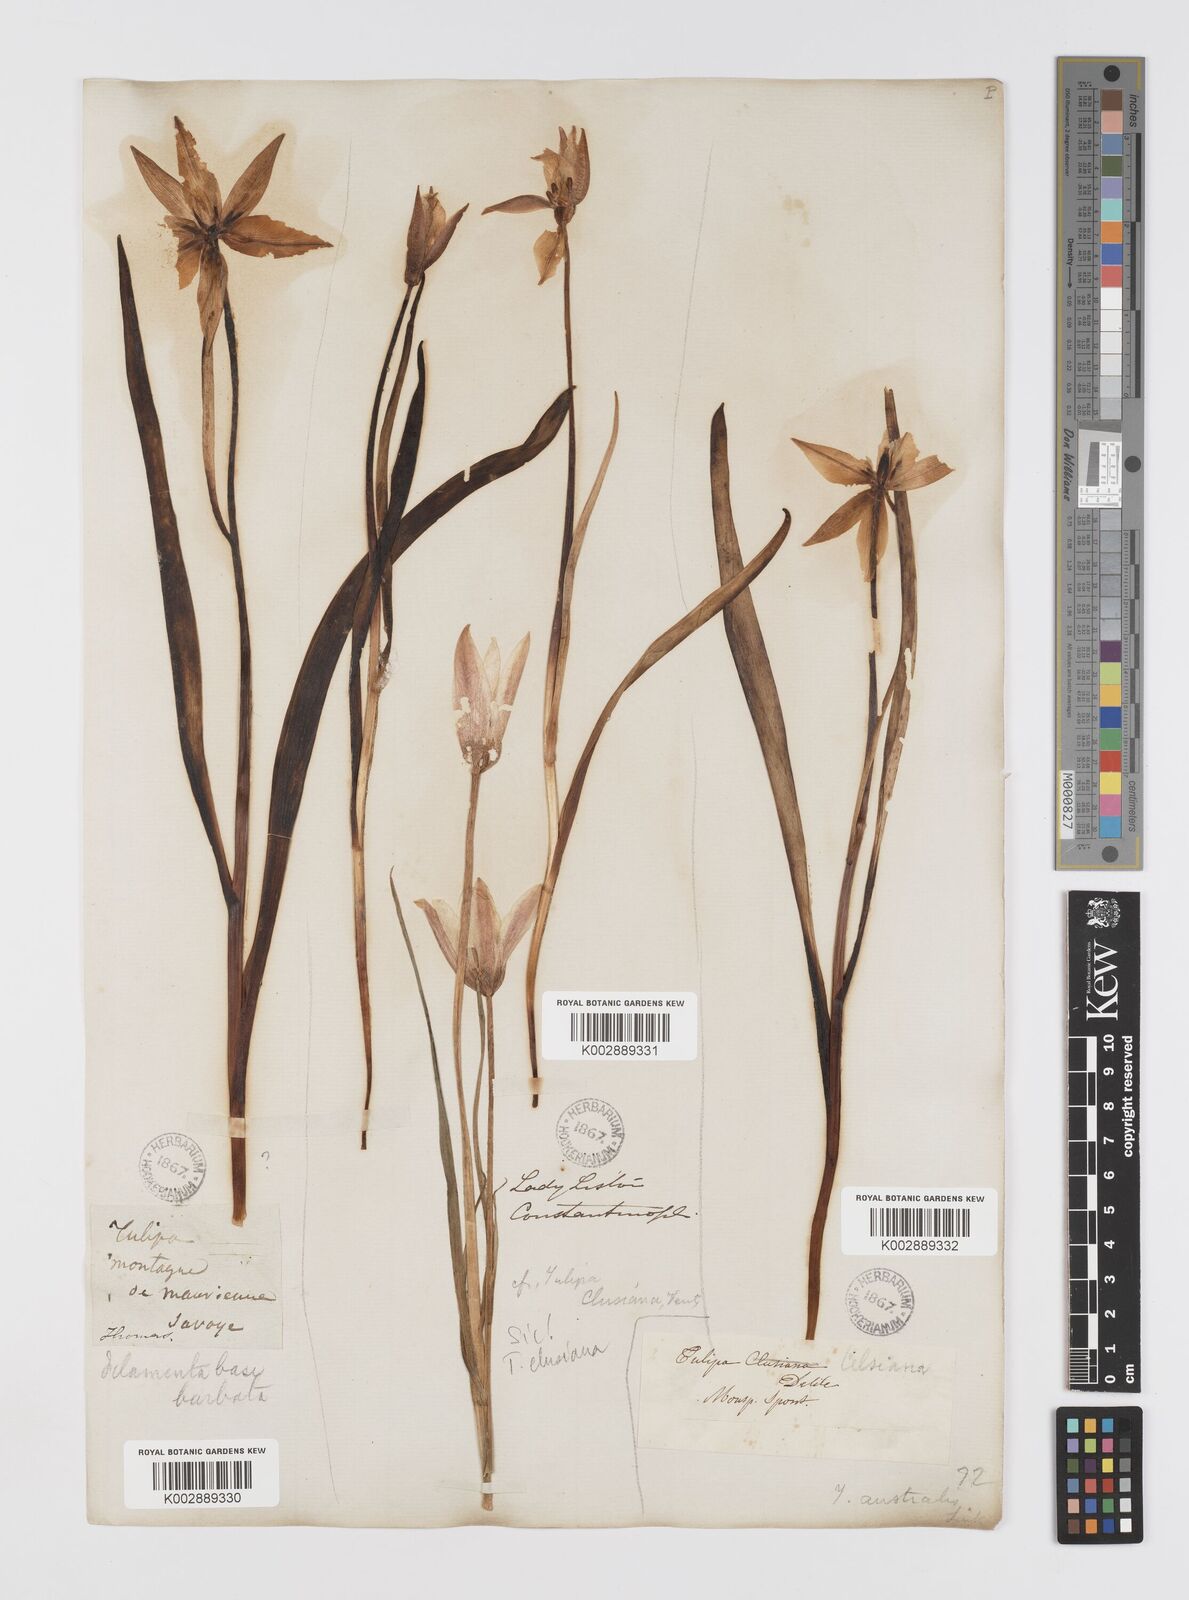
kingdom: Plantae
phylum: Tracheophyta
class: Liliopsida
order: Liliales
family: Liliaceae
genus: Tulipa
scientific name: Tulipa sylvestris
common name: Wild tulip
